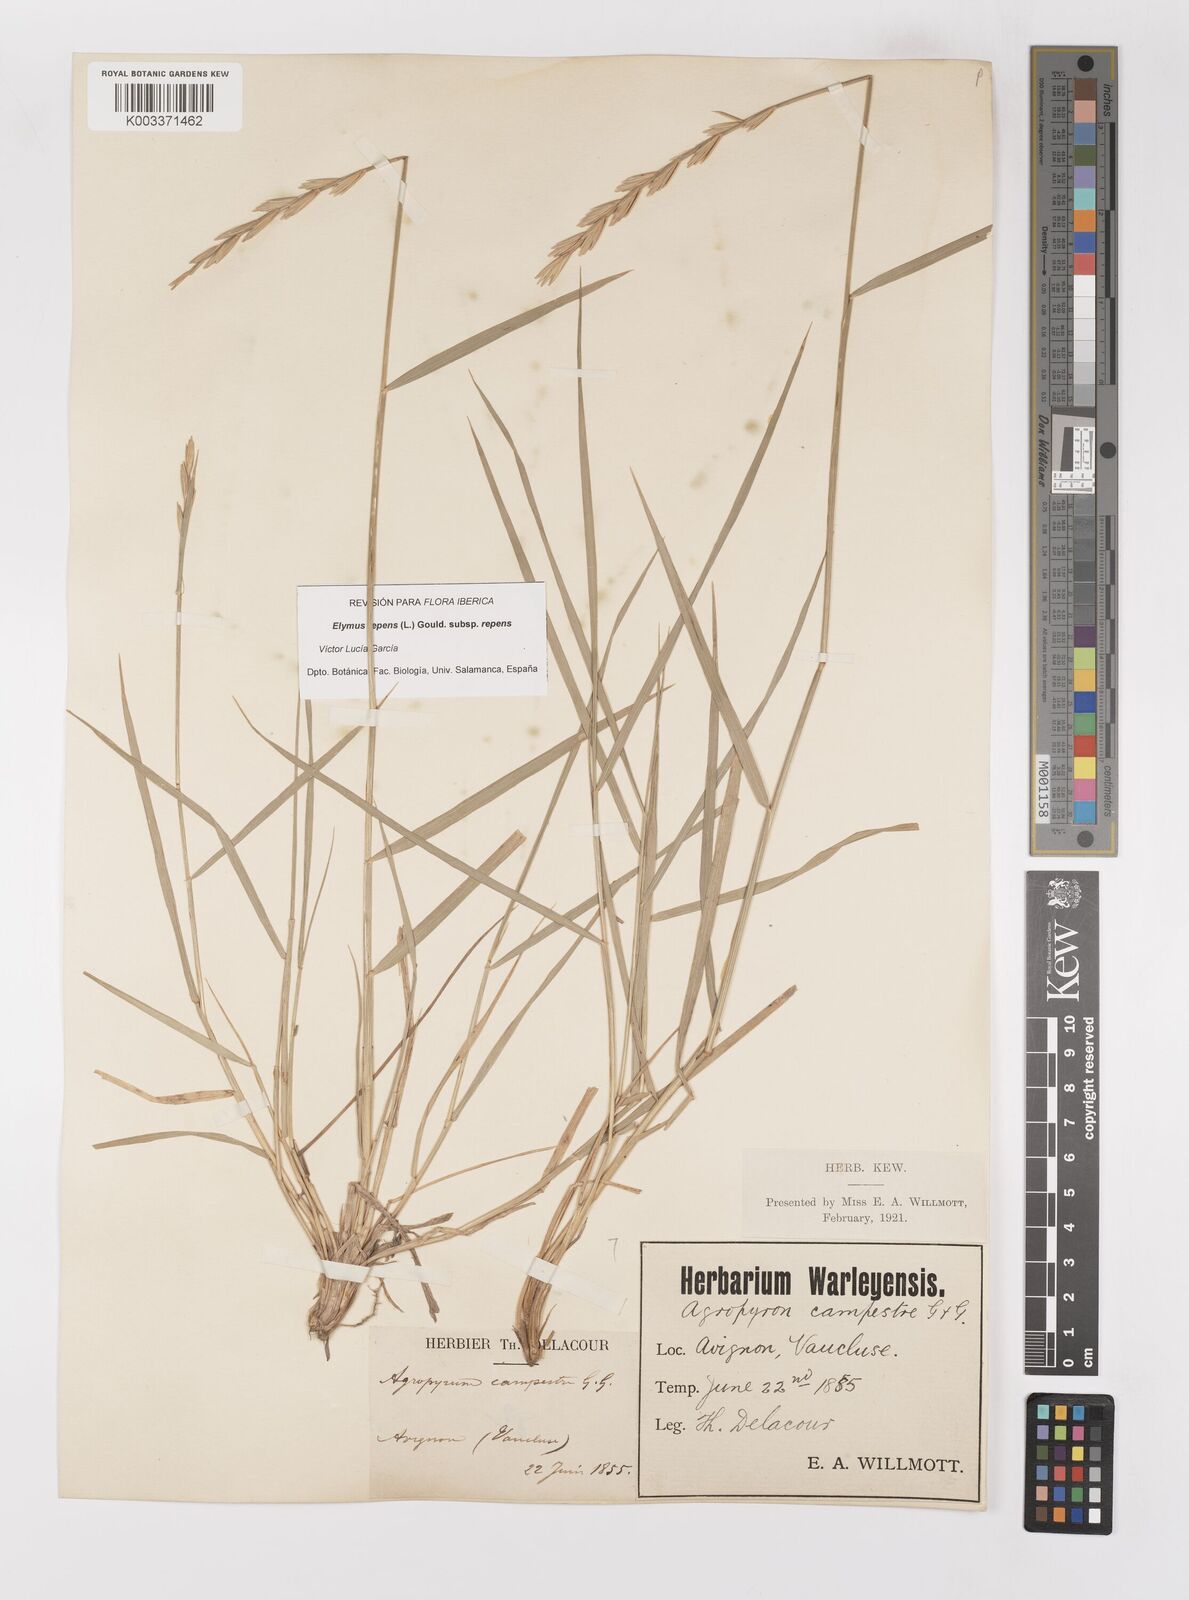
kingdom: Plantae
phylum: Tracheophyta
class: Liliopsida
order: Poales
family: Poaceae
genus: Elymus
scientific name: Elymus repens
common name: Quackgrass
